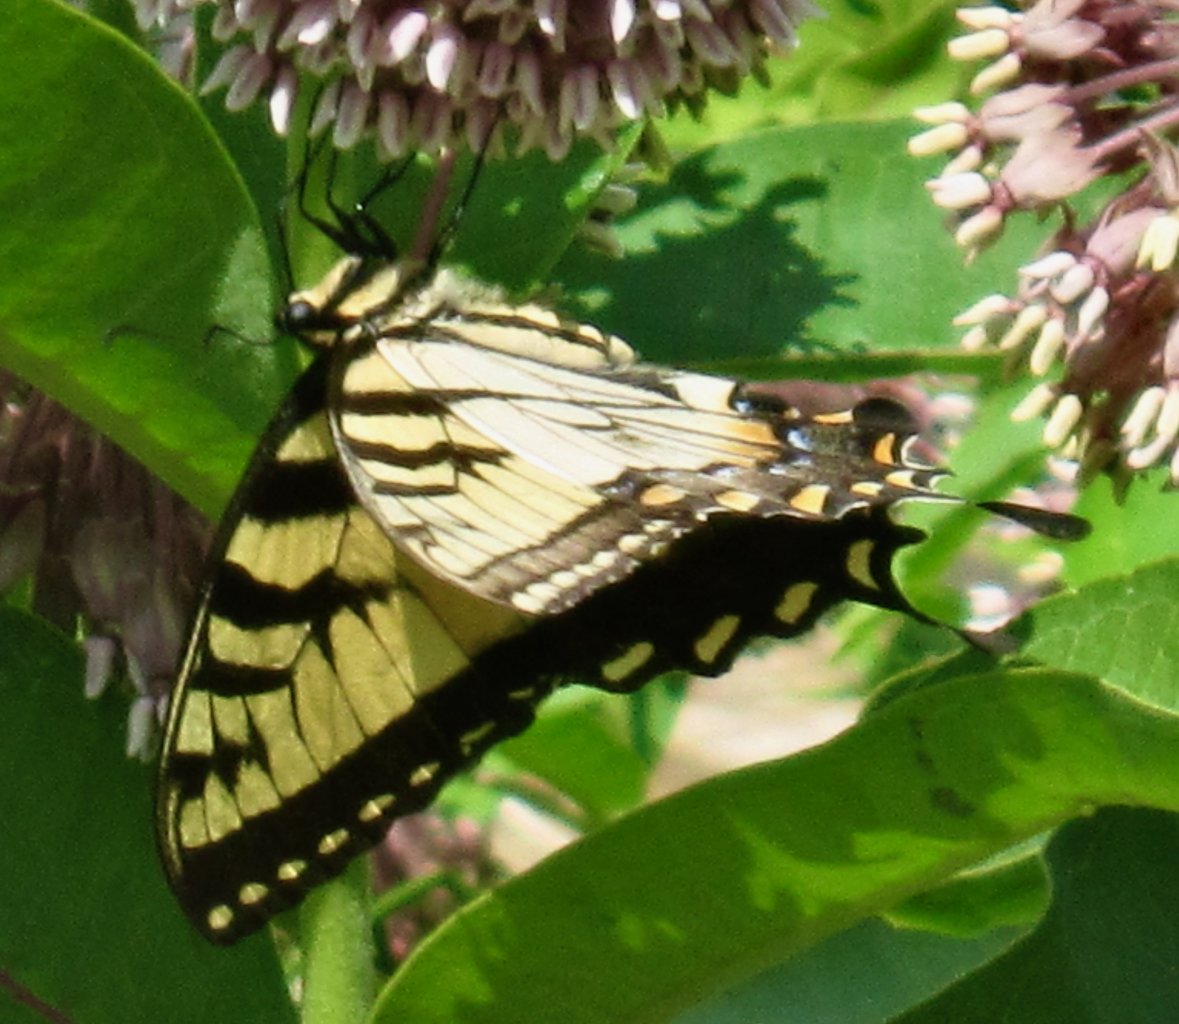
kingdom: Animalia
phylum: Arthropoda
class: Insecta
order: Lepidoptera
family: Papilionidae
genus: Pterourus
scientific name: Pterourus glaucus
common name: Eastern Tiger Swallowtail
